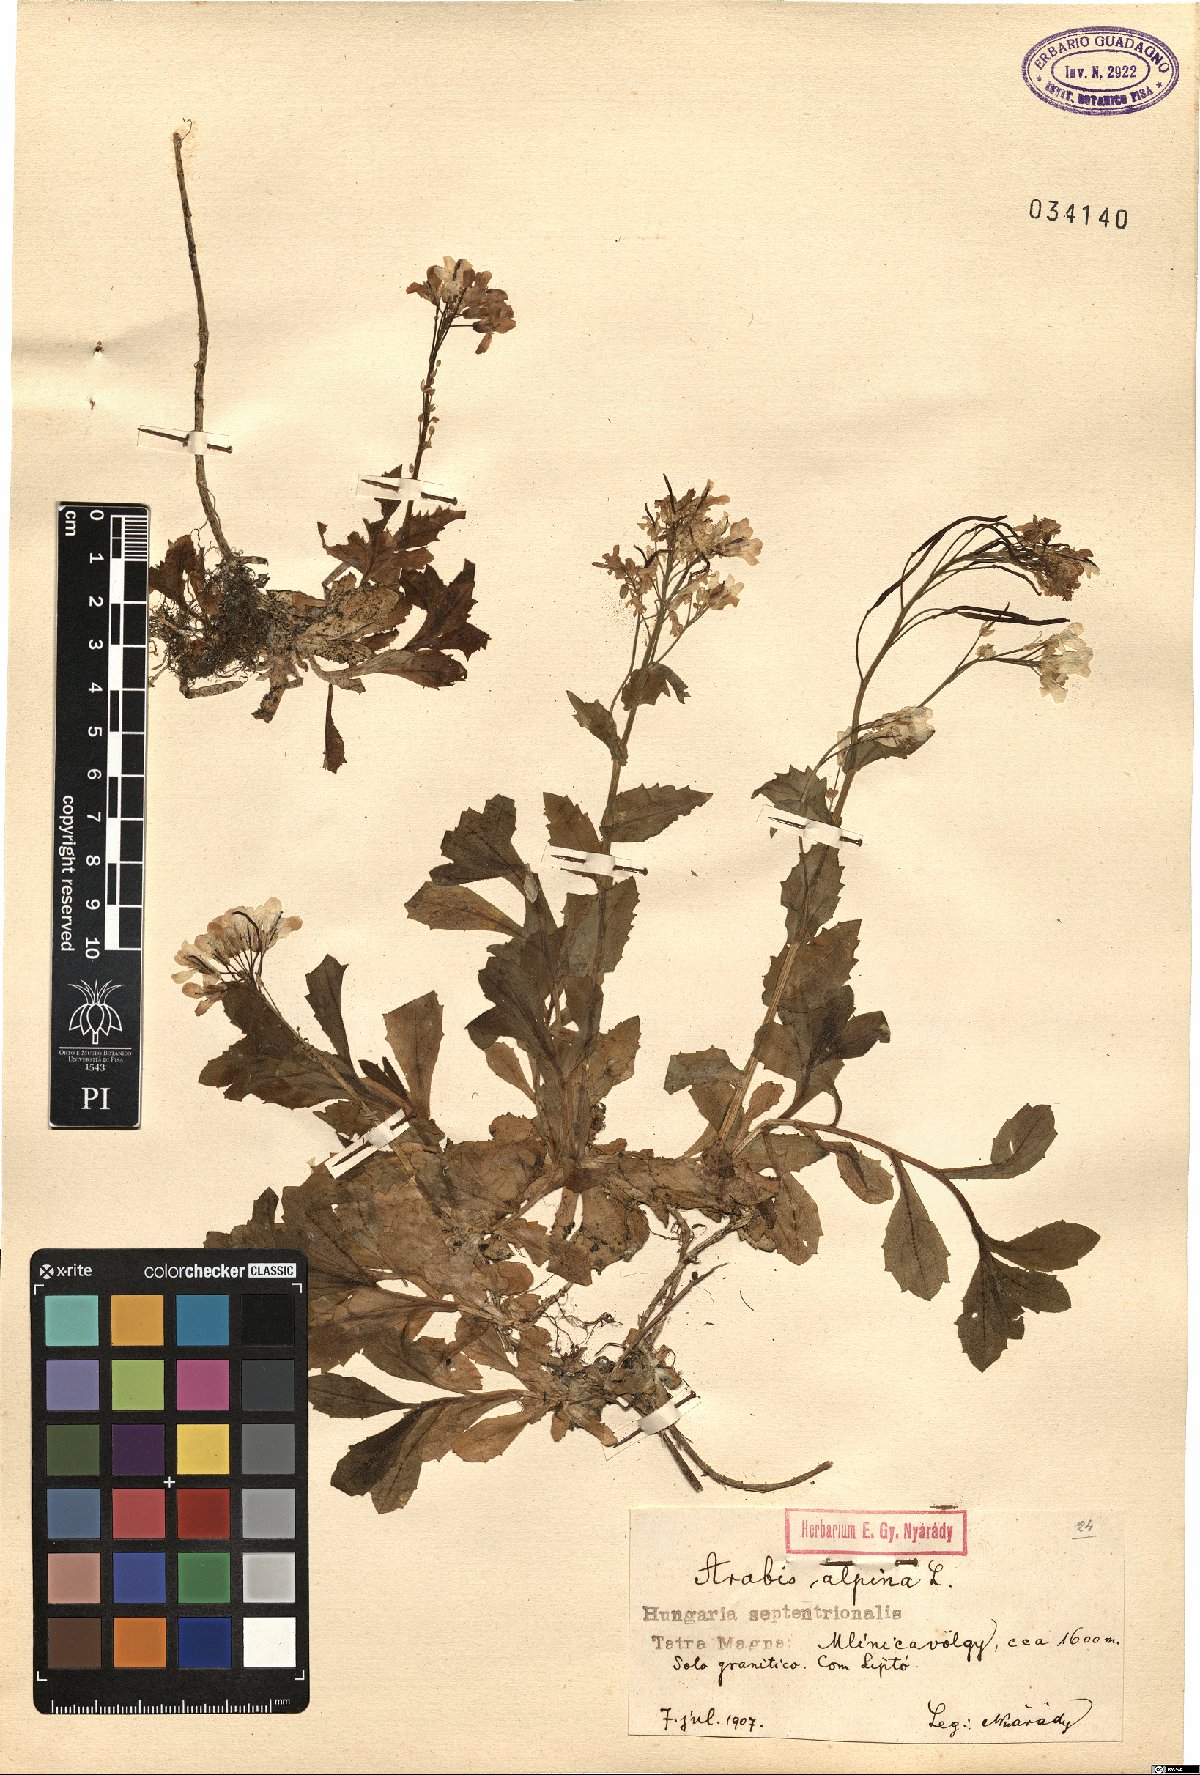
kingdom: Plantae
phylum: Tracheophyta
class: Magnoliopsida
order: Brassicales
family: Brassicaceae
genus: Arabis
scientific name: Arabis alpina
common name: Alpine rock-cress
